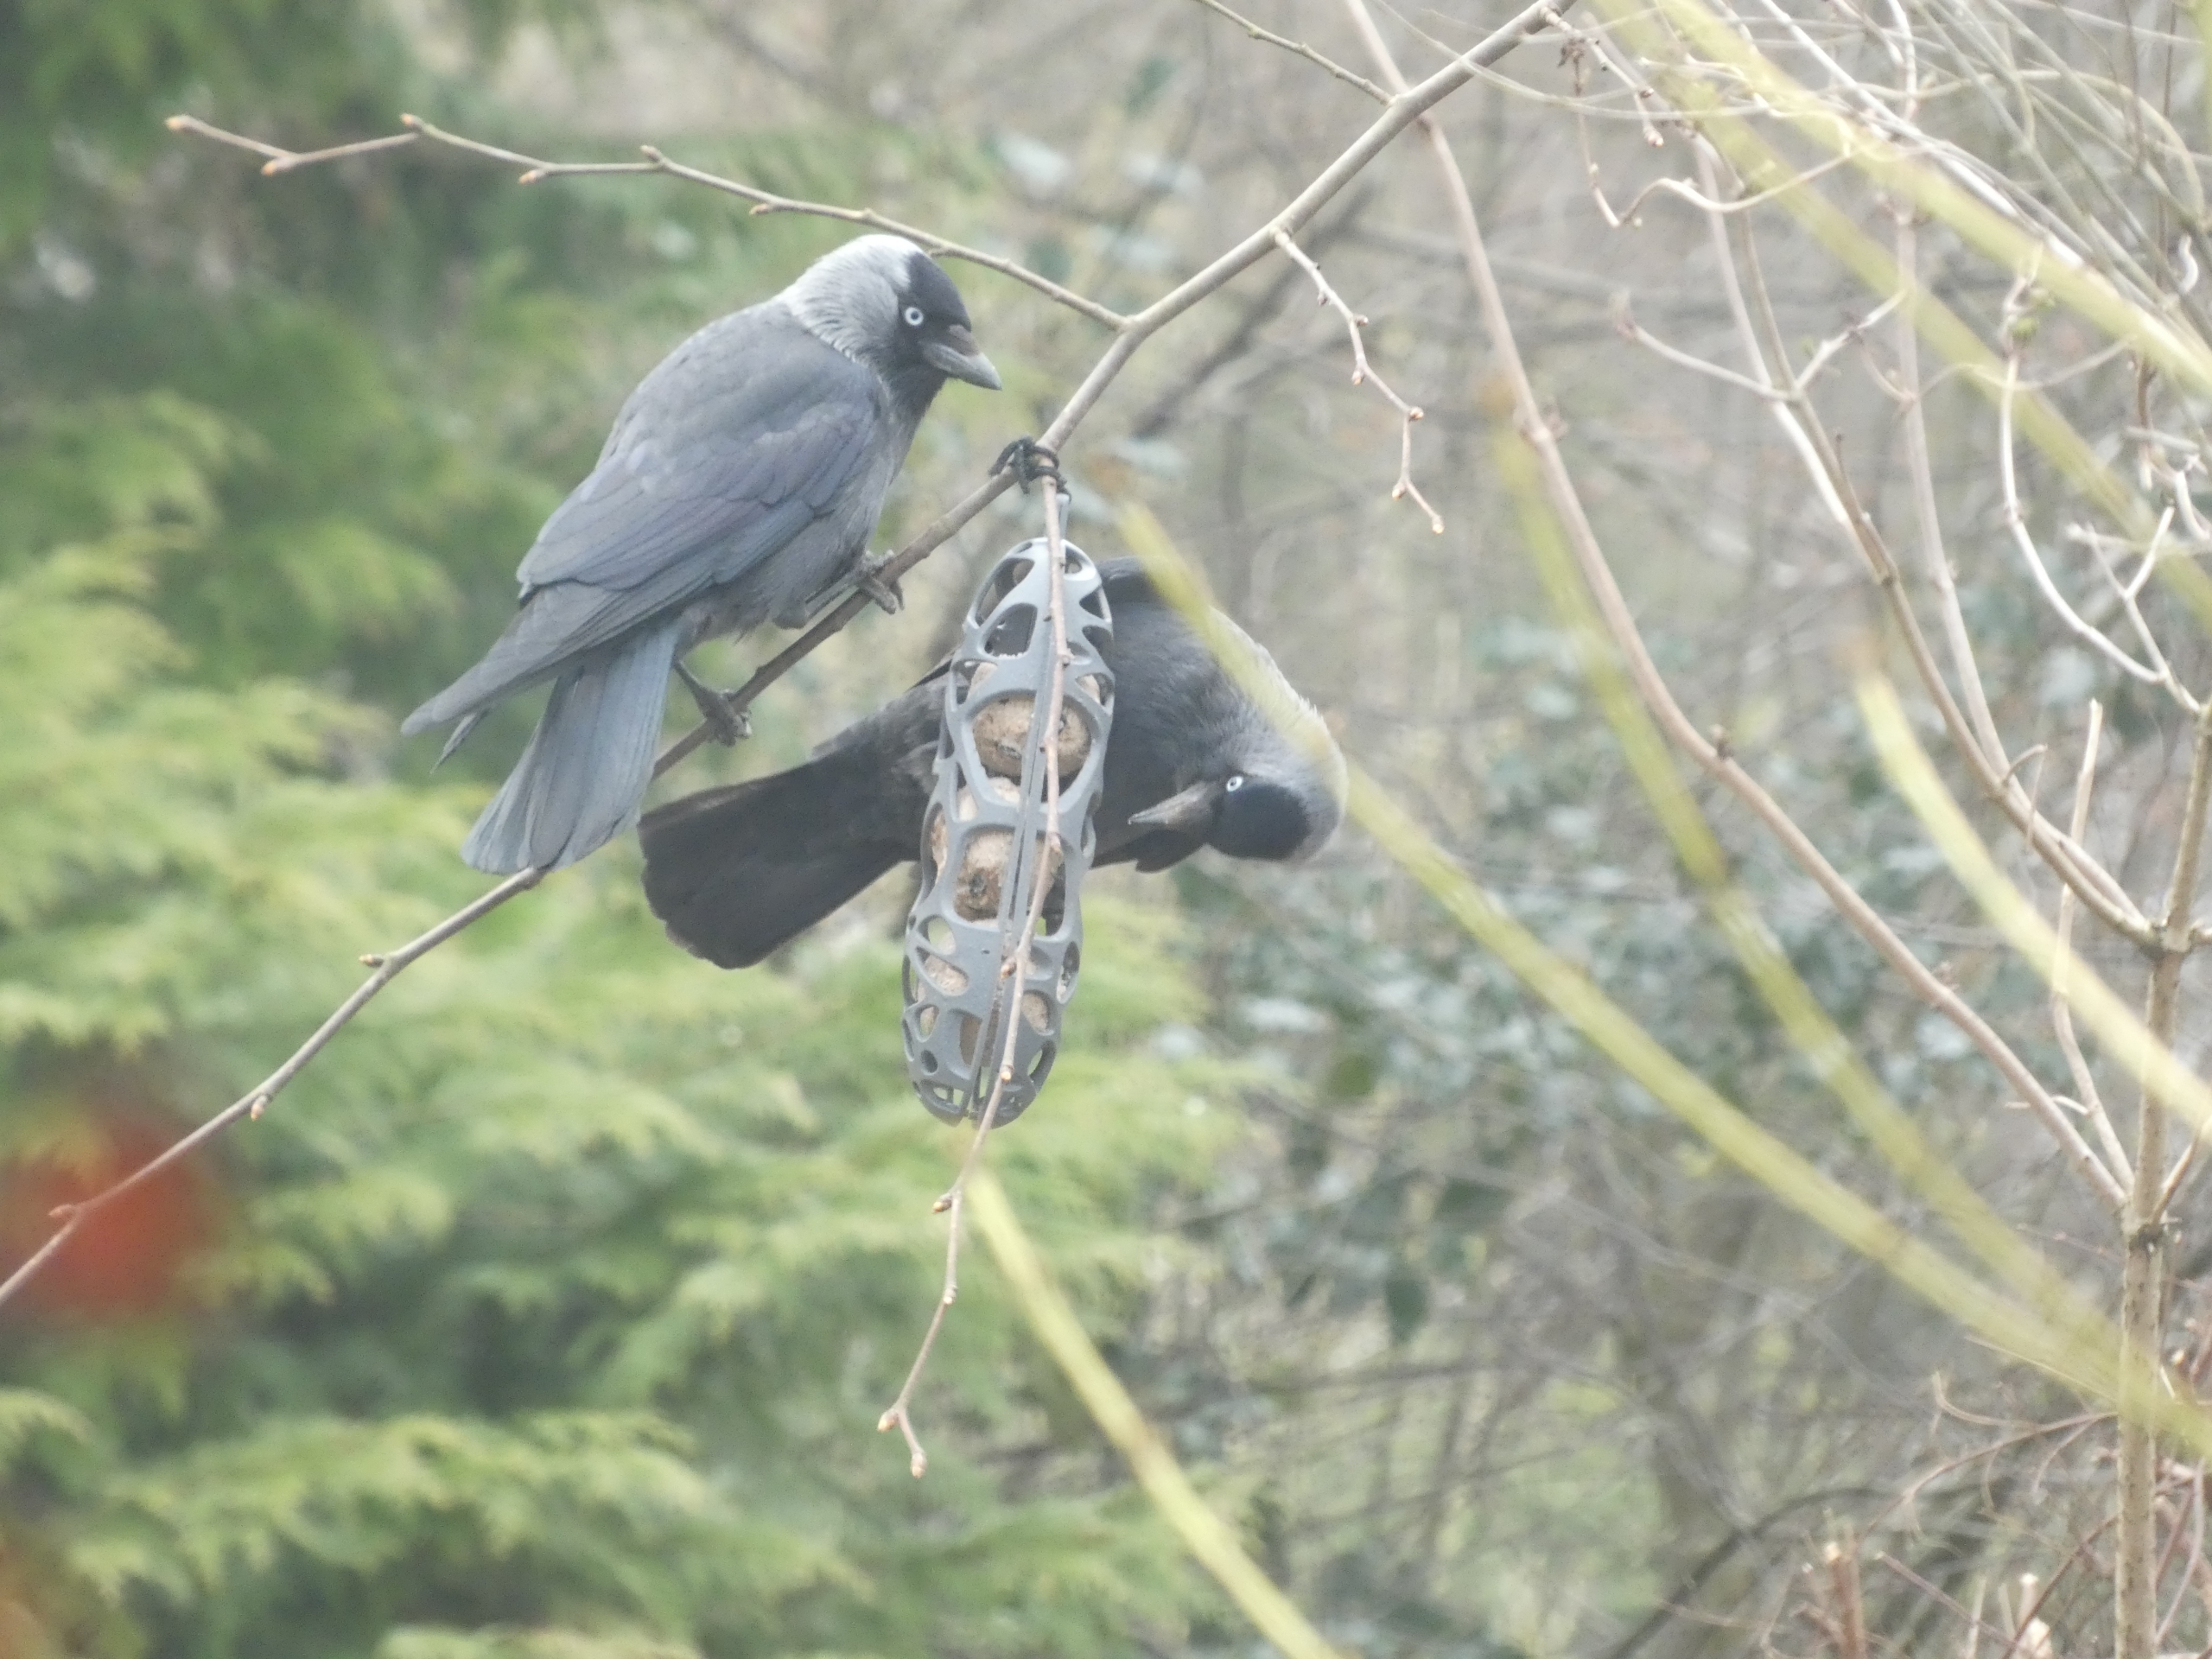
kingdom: Animalia
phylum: Chordata
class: Aves
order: Passeriformes
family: Corvidae
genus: Coloeus
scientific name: Coloeus monedula
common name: Allike
